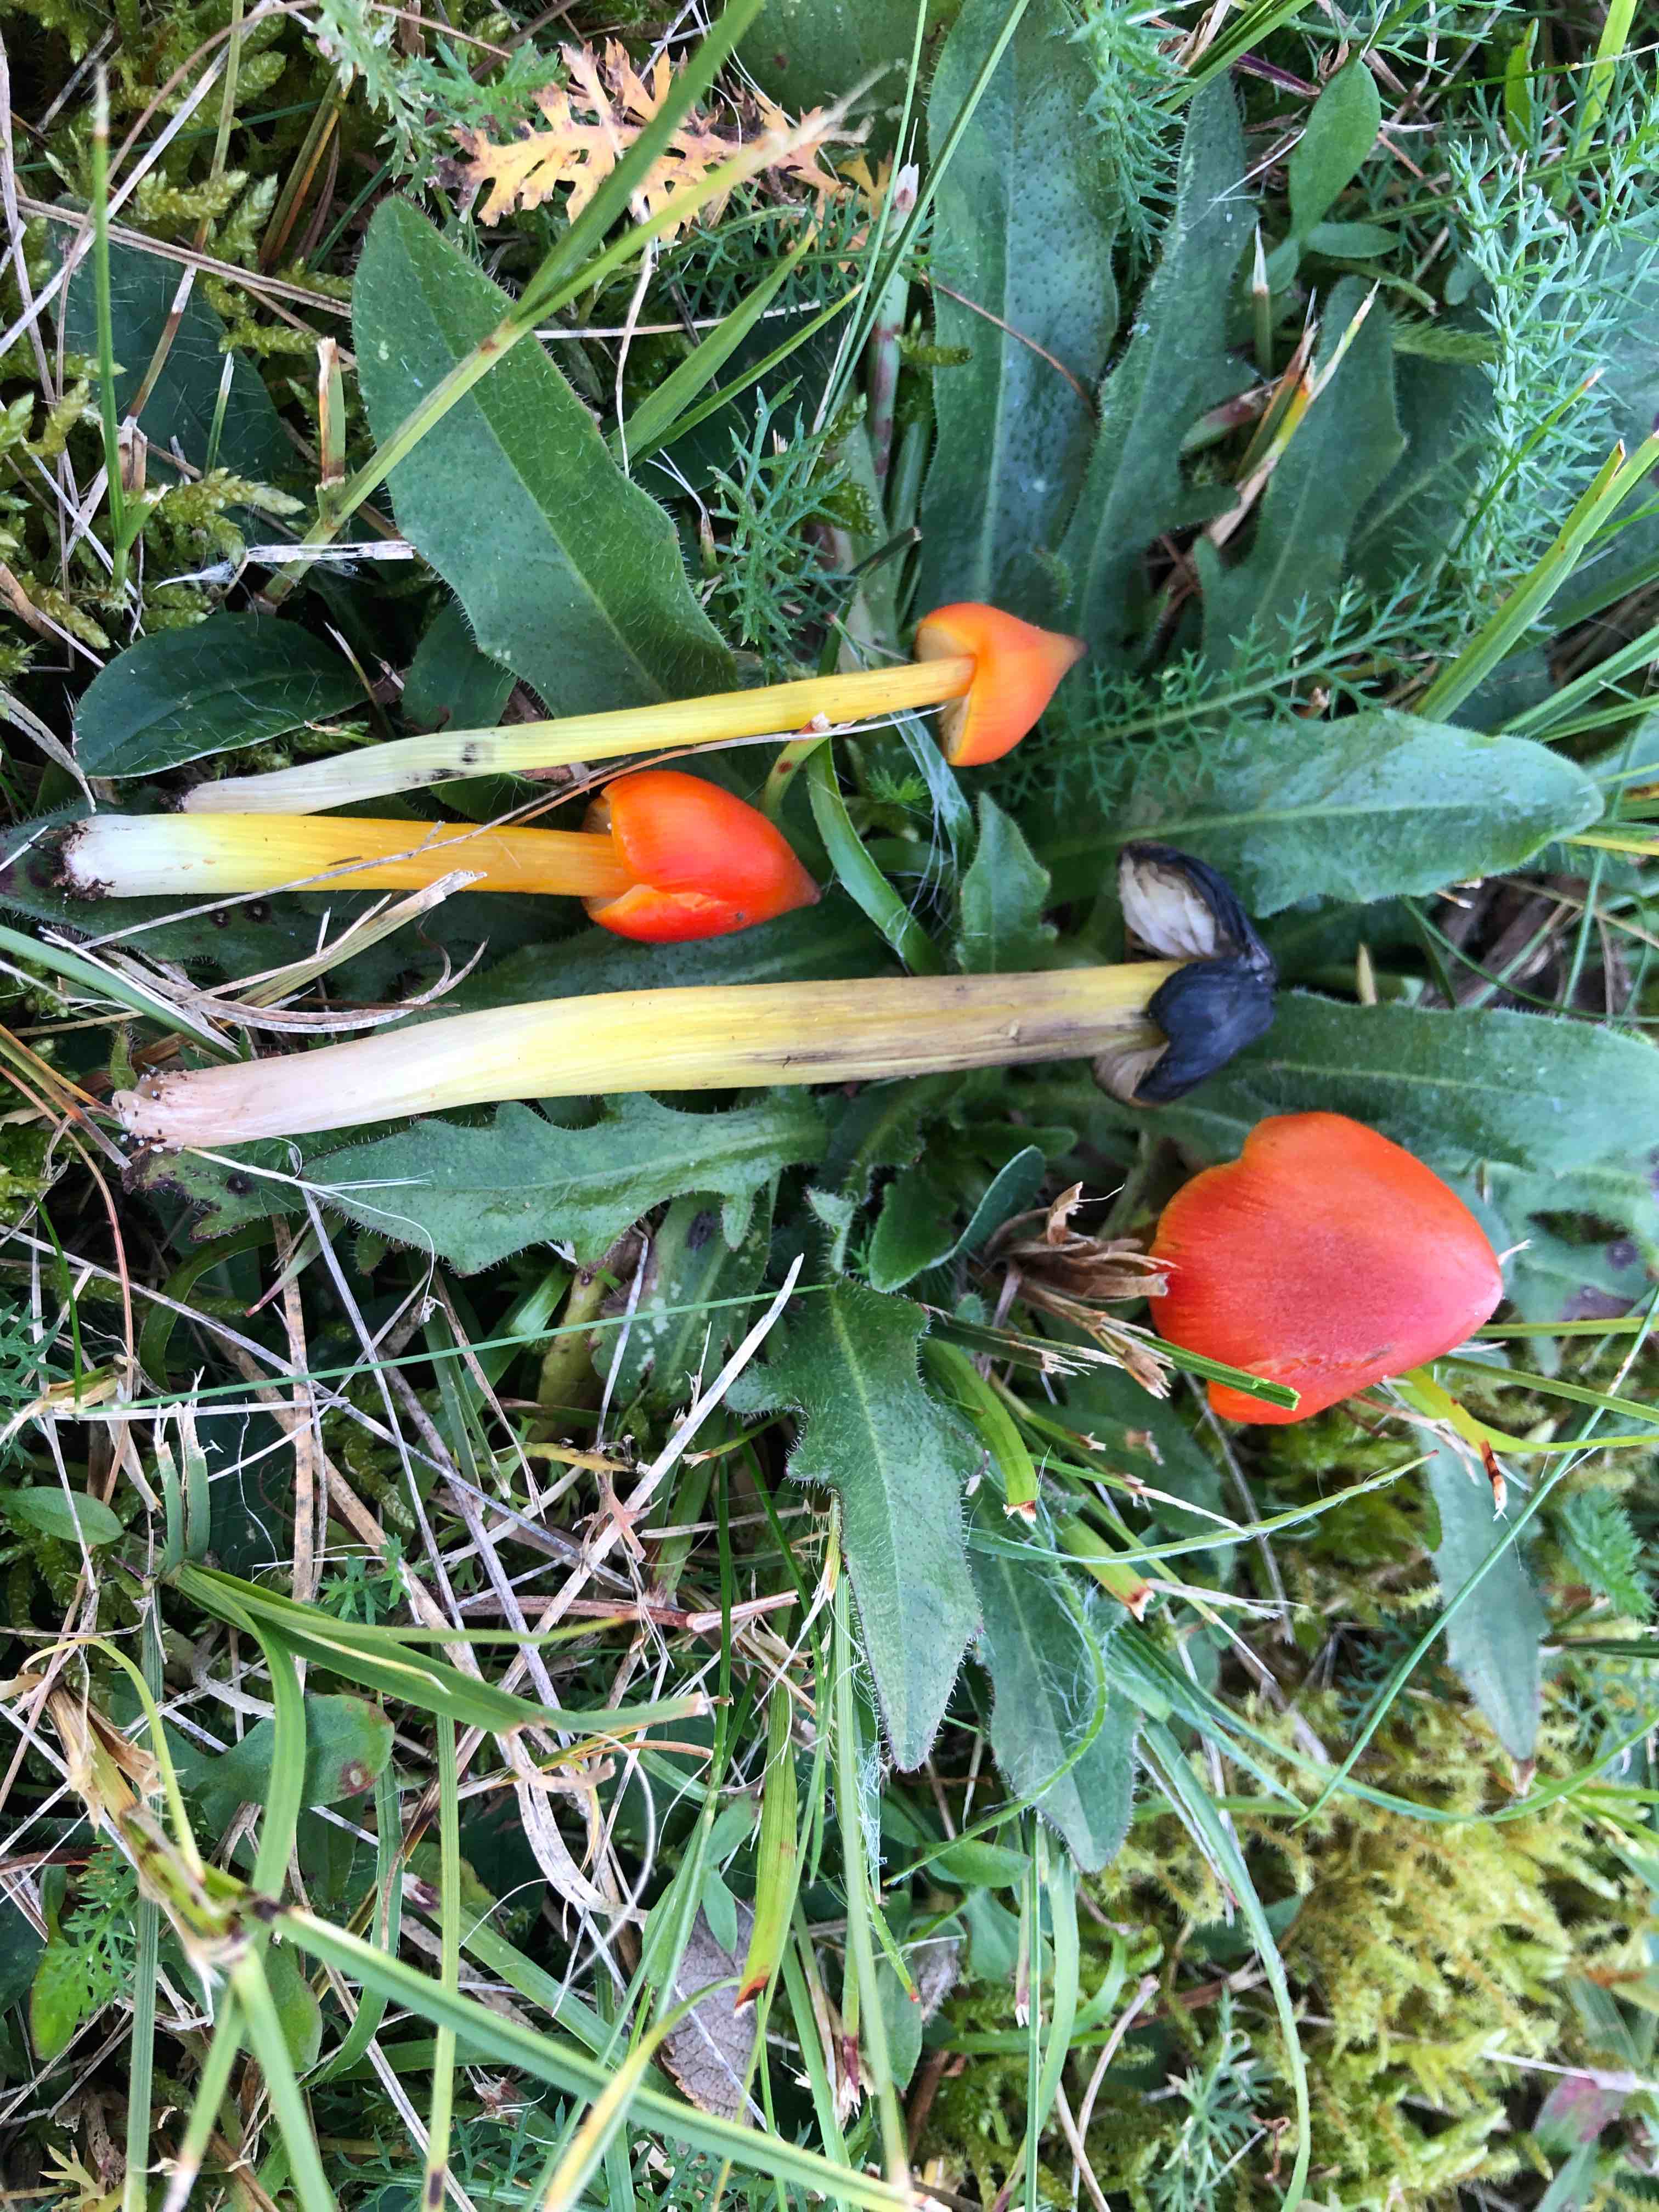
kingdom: Fungi
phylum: Basidiomycota
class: Agaricomycetes
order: Agaricales
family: Hygrophoraceae
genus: Hygrocybe
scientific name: Hygrocybe conica
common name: kegle-vokshat
